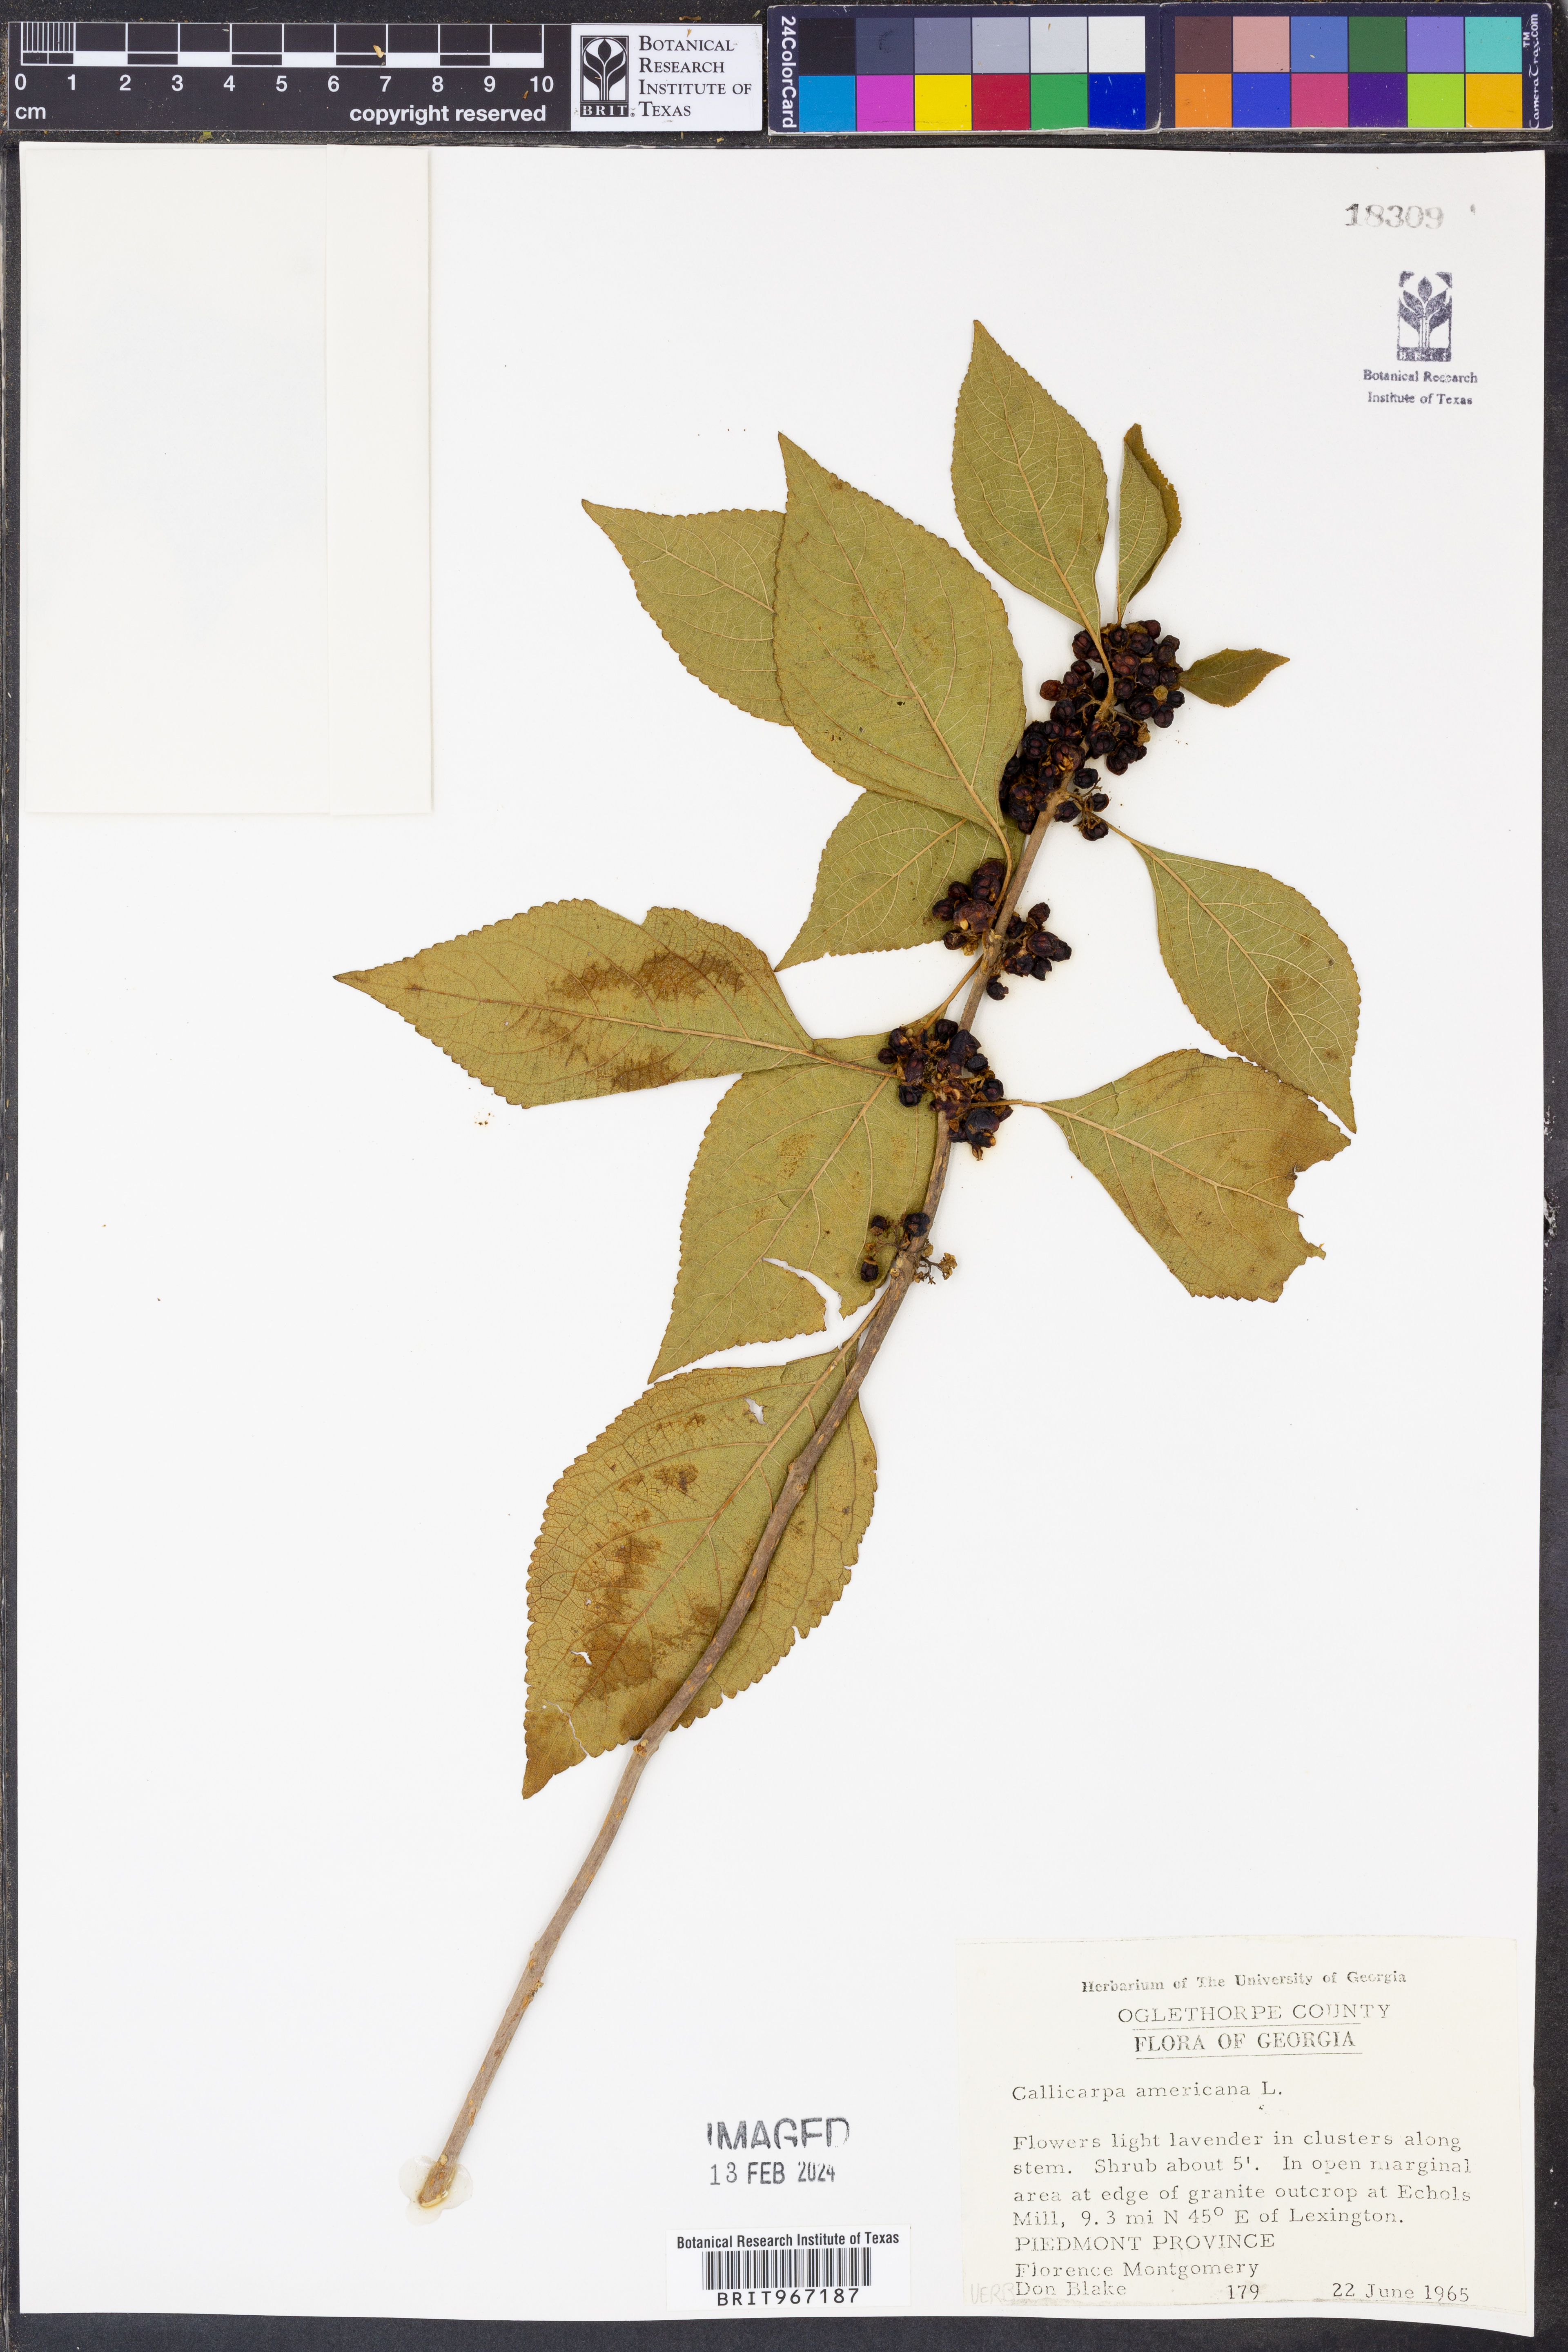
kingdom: Plantae
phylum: Tracheophyta
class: Magnoliopsida
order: Lamiales
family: Lamiaceae
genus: Callicarpa
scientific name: Callicarpa americana
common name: American beautyberry
